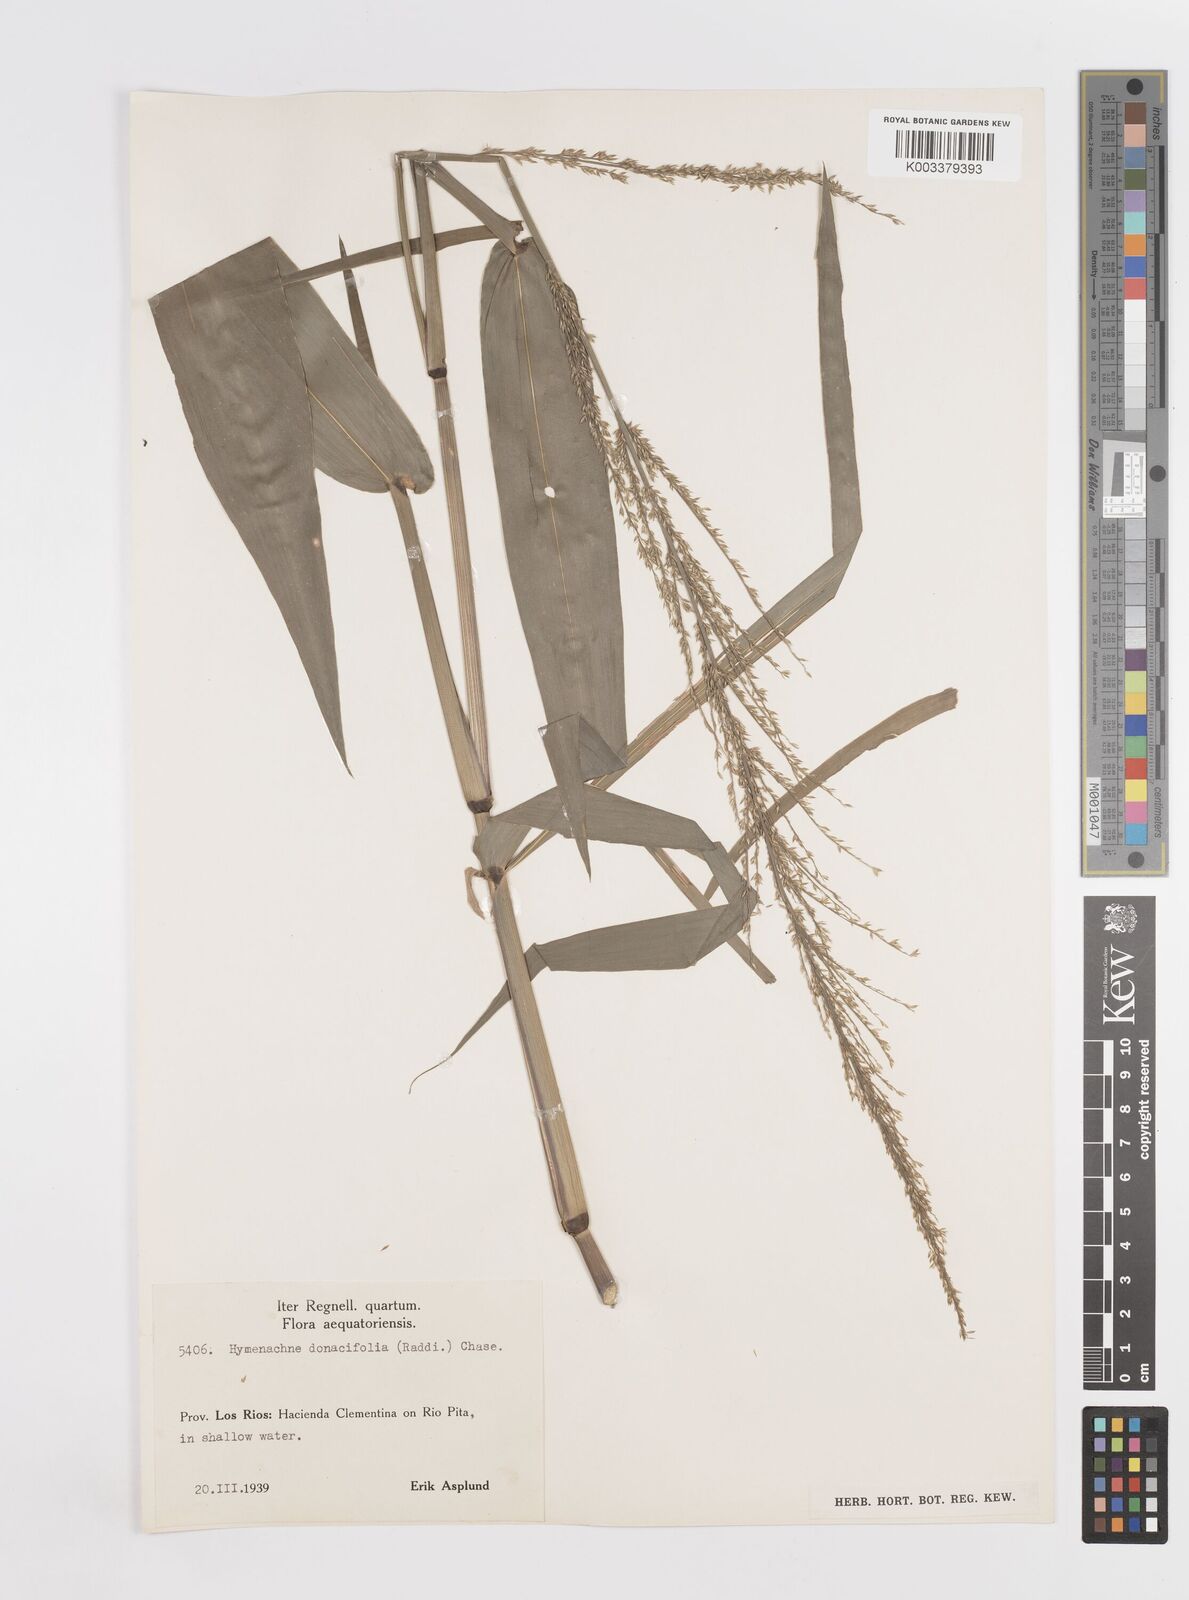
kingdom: Plantae
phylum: Tracheophyta
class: Liliopsida
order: Poales
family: Poaceae
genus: Hymenachne
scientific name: Hymenachne donacifolia
